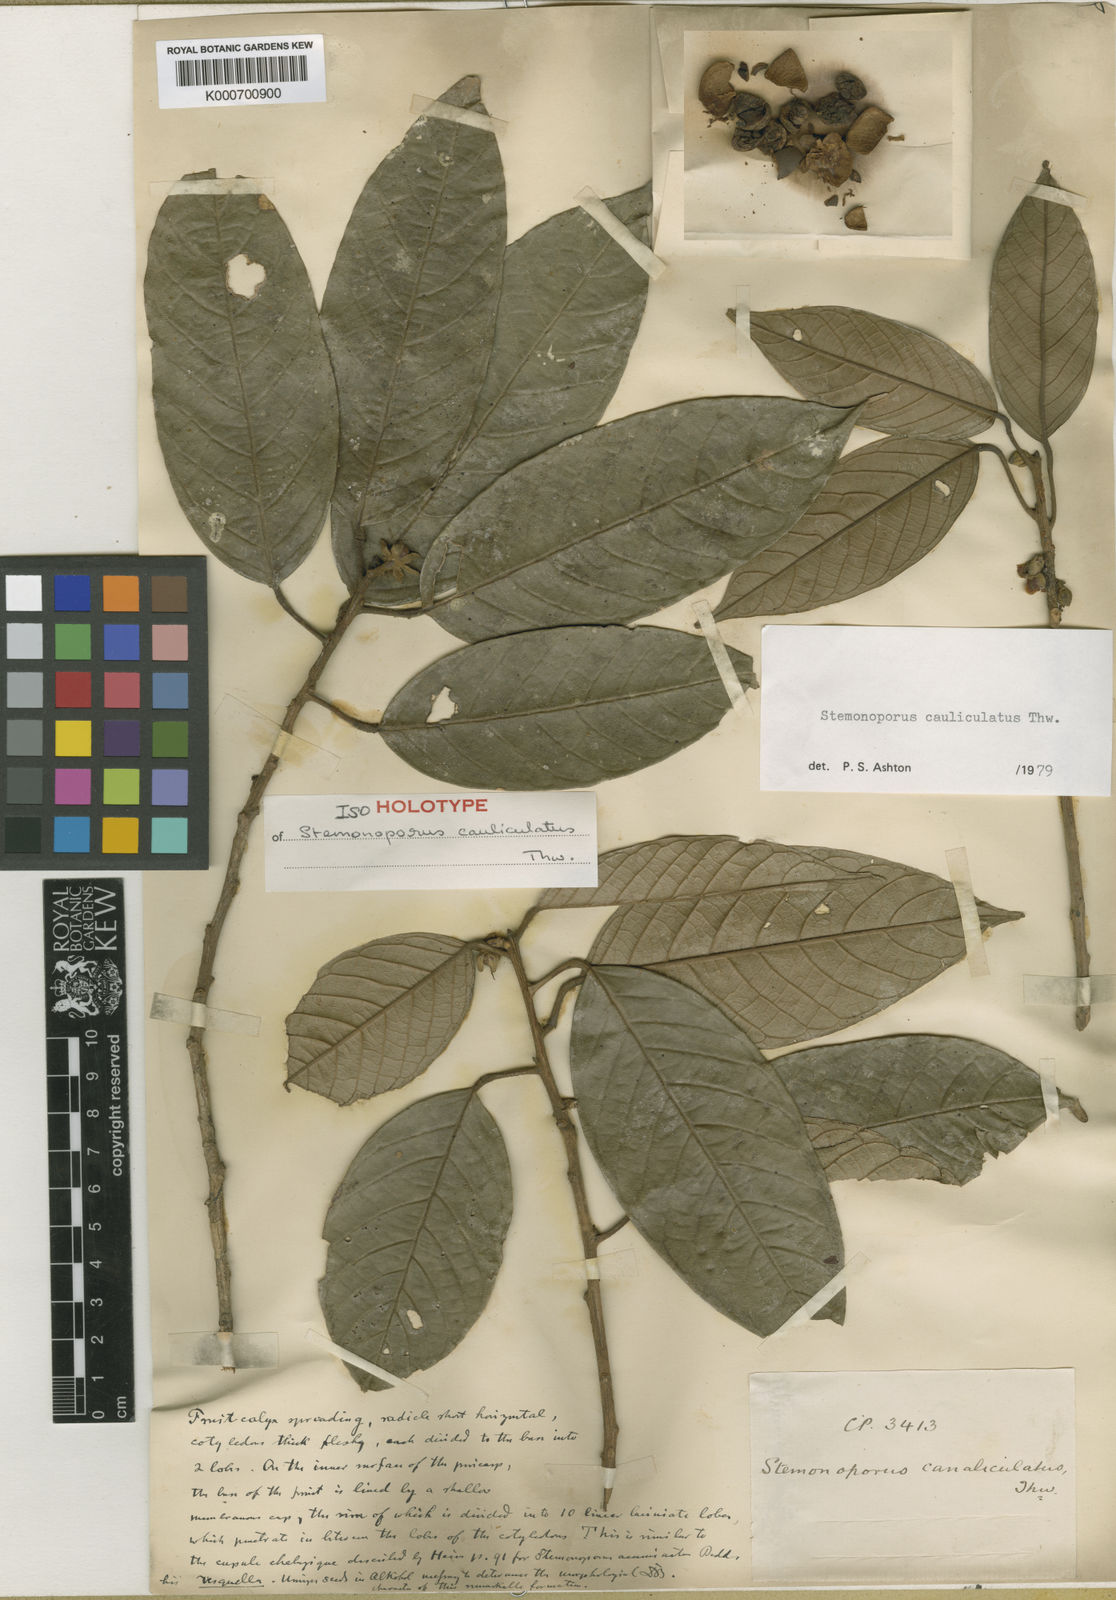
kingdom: Plantae
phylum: Tracheophyta
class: Magnoliopsida
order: Malvales
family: Dipterocarpaceae
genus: Stemonoporus
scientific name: Stemonoporus canaliculatus
